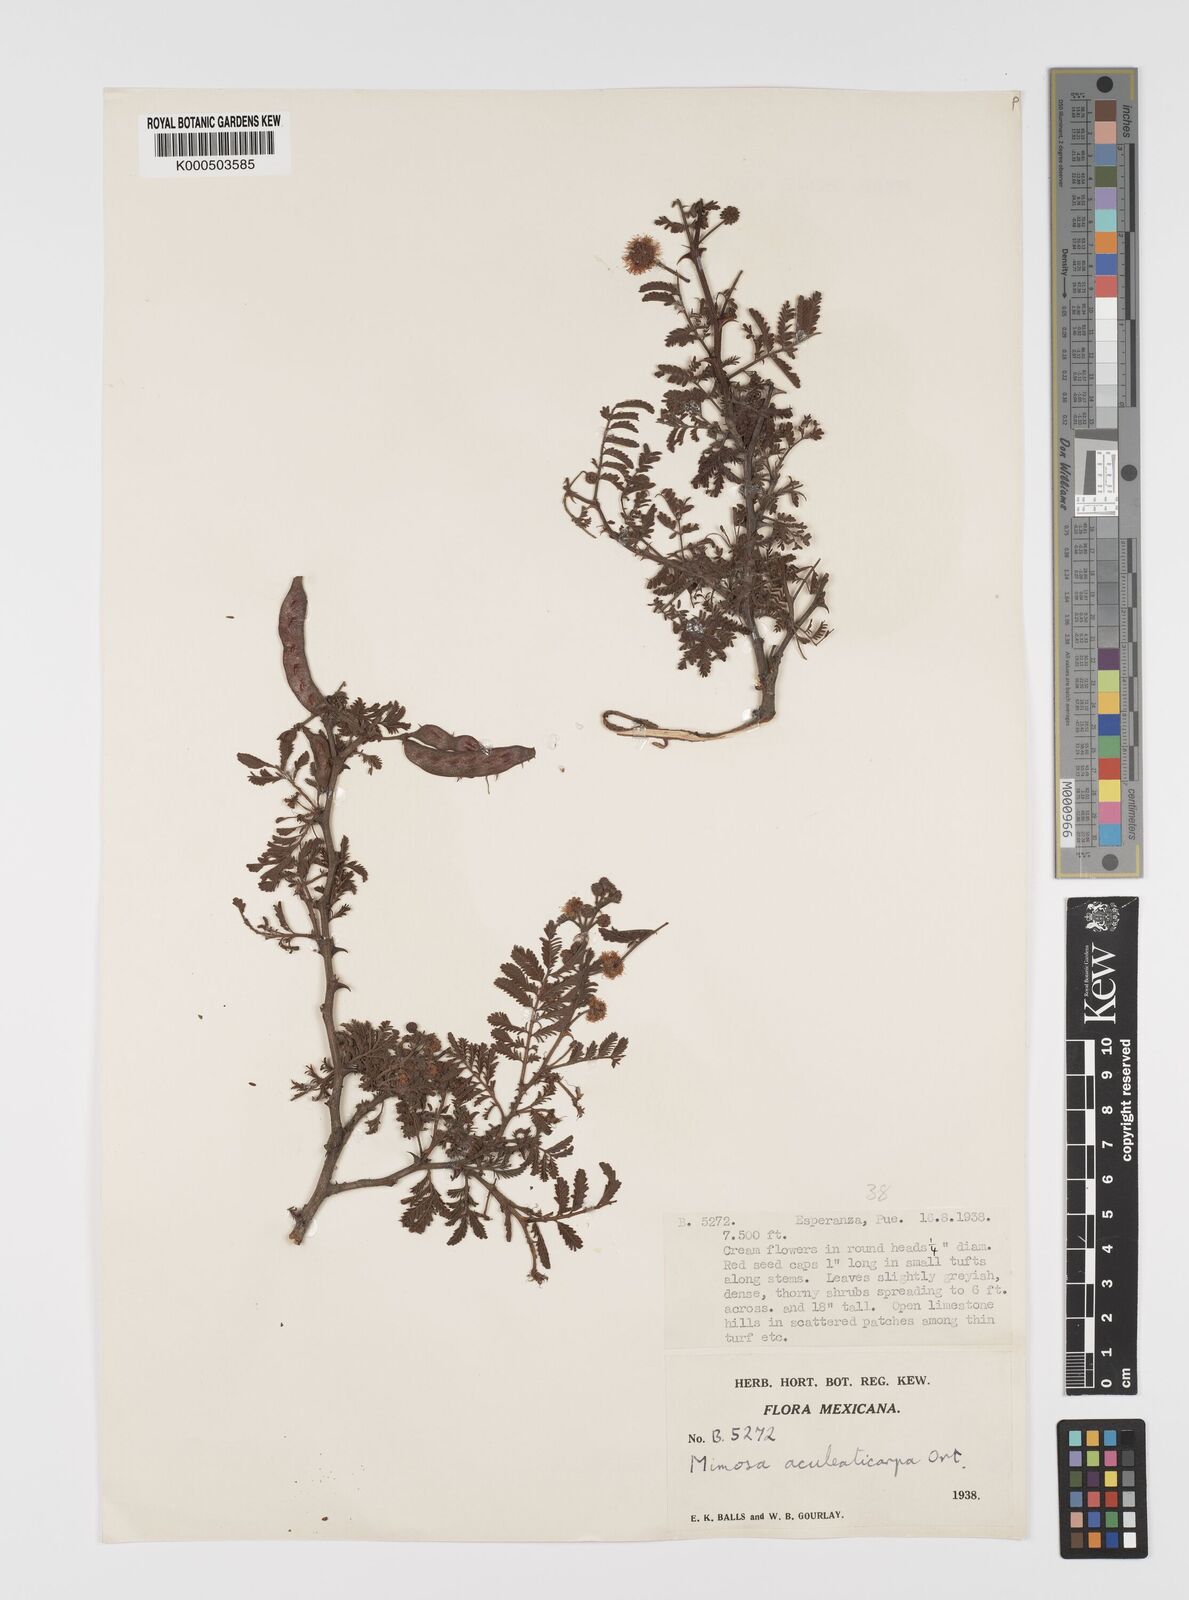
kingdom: Plantae
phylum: Tracheophyta
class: Magnoliopsida
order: Fabales
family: Fabaceae
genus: Mimosa
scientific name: Mimosa aculeaticarpa
